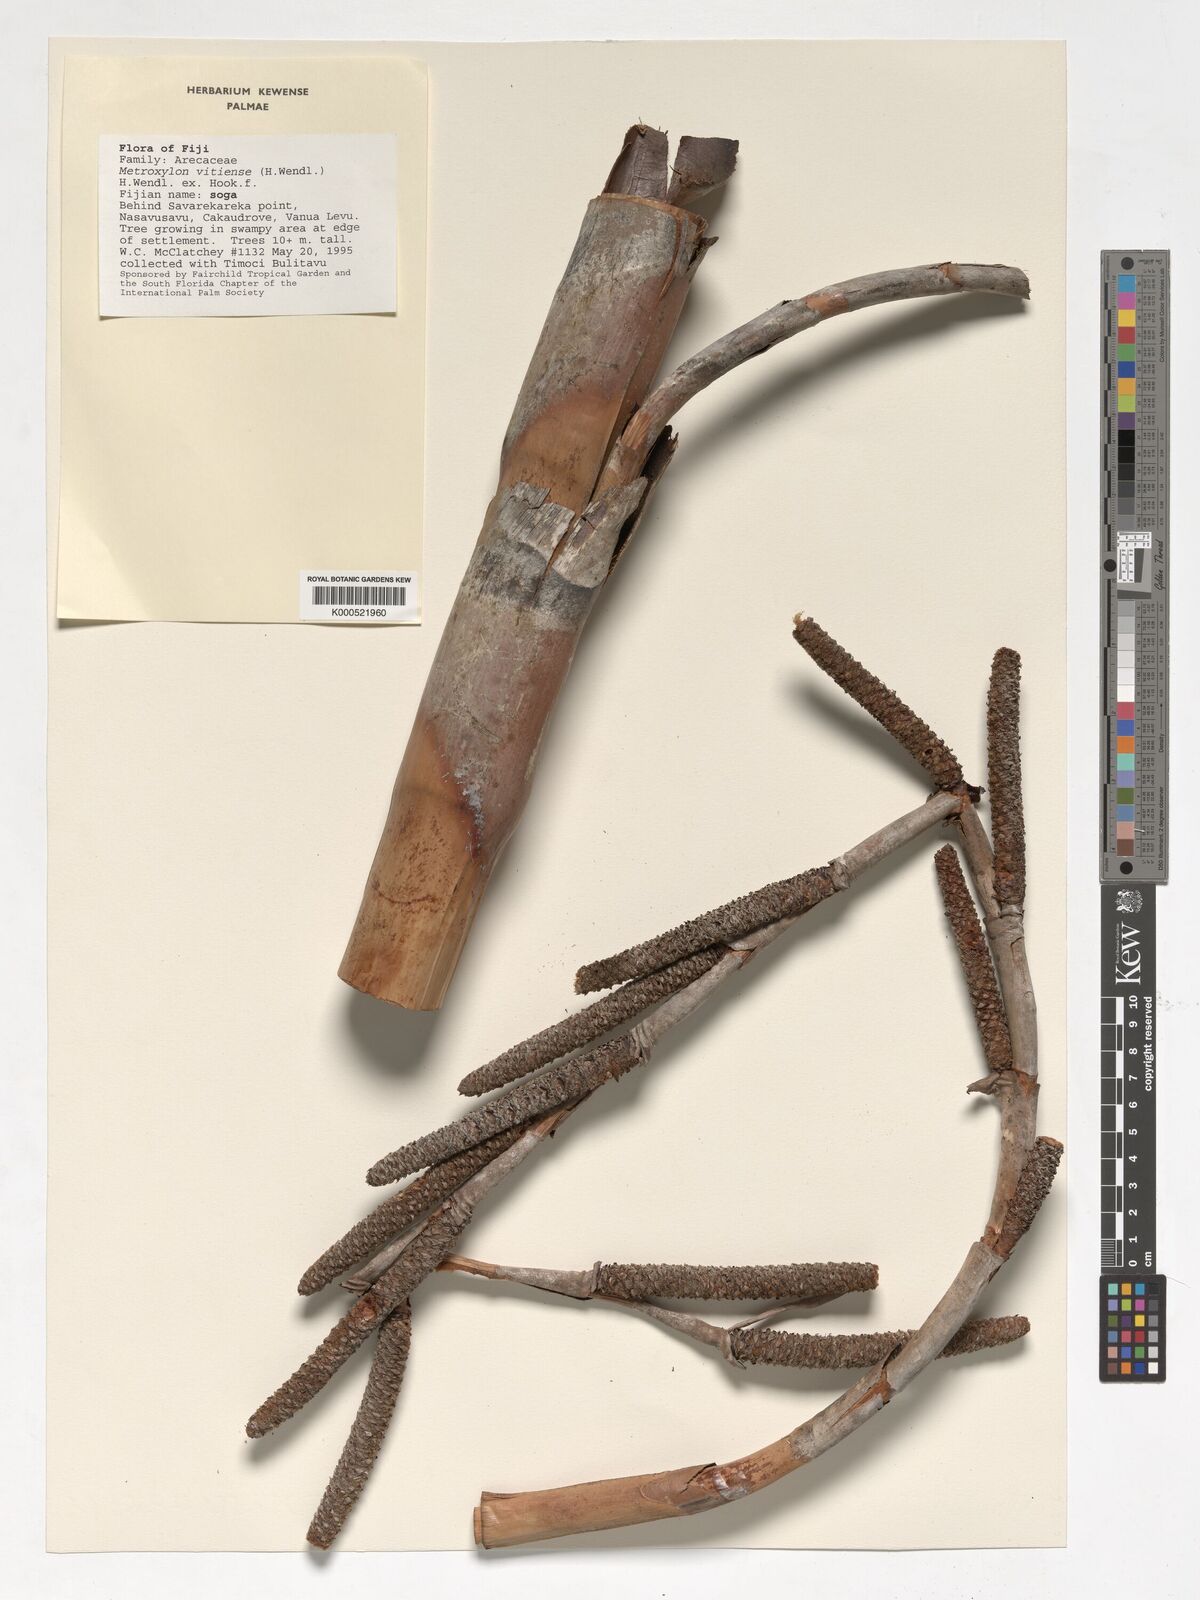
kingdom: Plantae
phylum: Tracheophyta
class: Liliopsida
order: Arecales
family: Arecaceae
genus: Metroxylon
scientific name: Metroxylon
